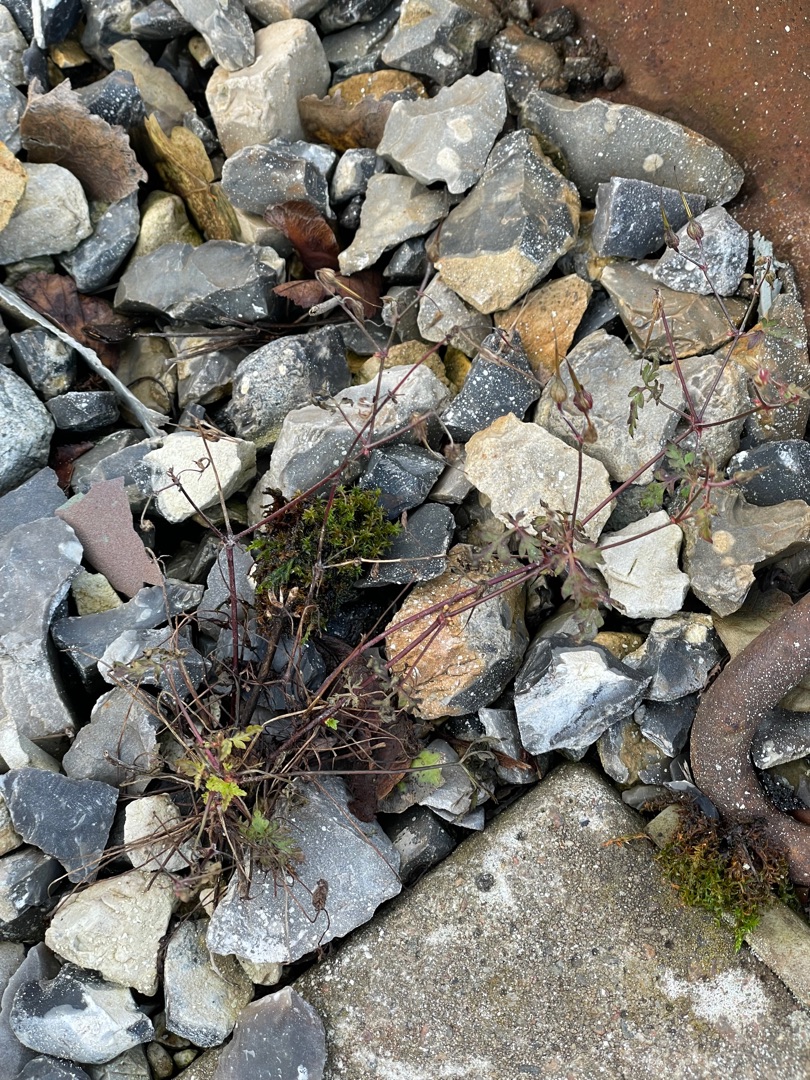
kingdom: Plantae
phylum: Tracheophyta
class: Magnoliopsida
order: Geraniales
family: Geraniaceae
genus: Geranium
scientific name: Geranium robertianum
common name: Stinkende storkenæb
